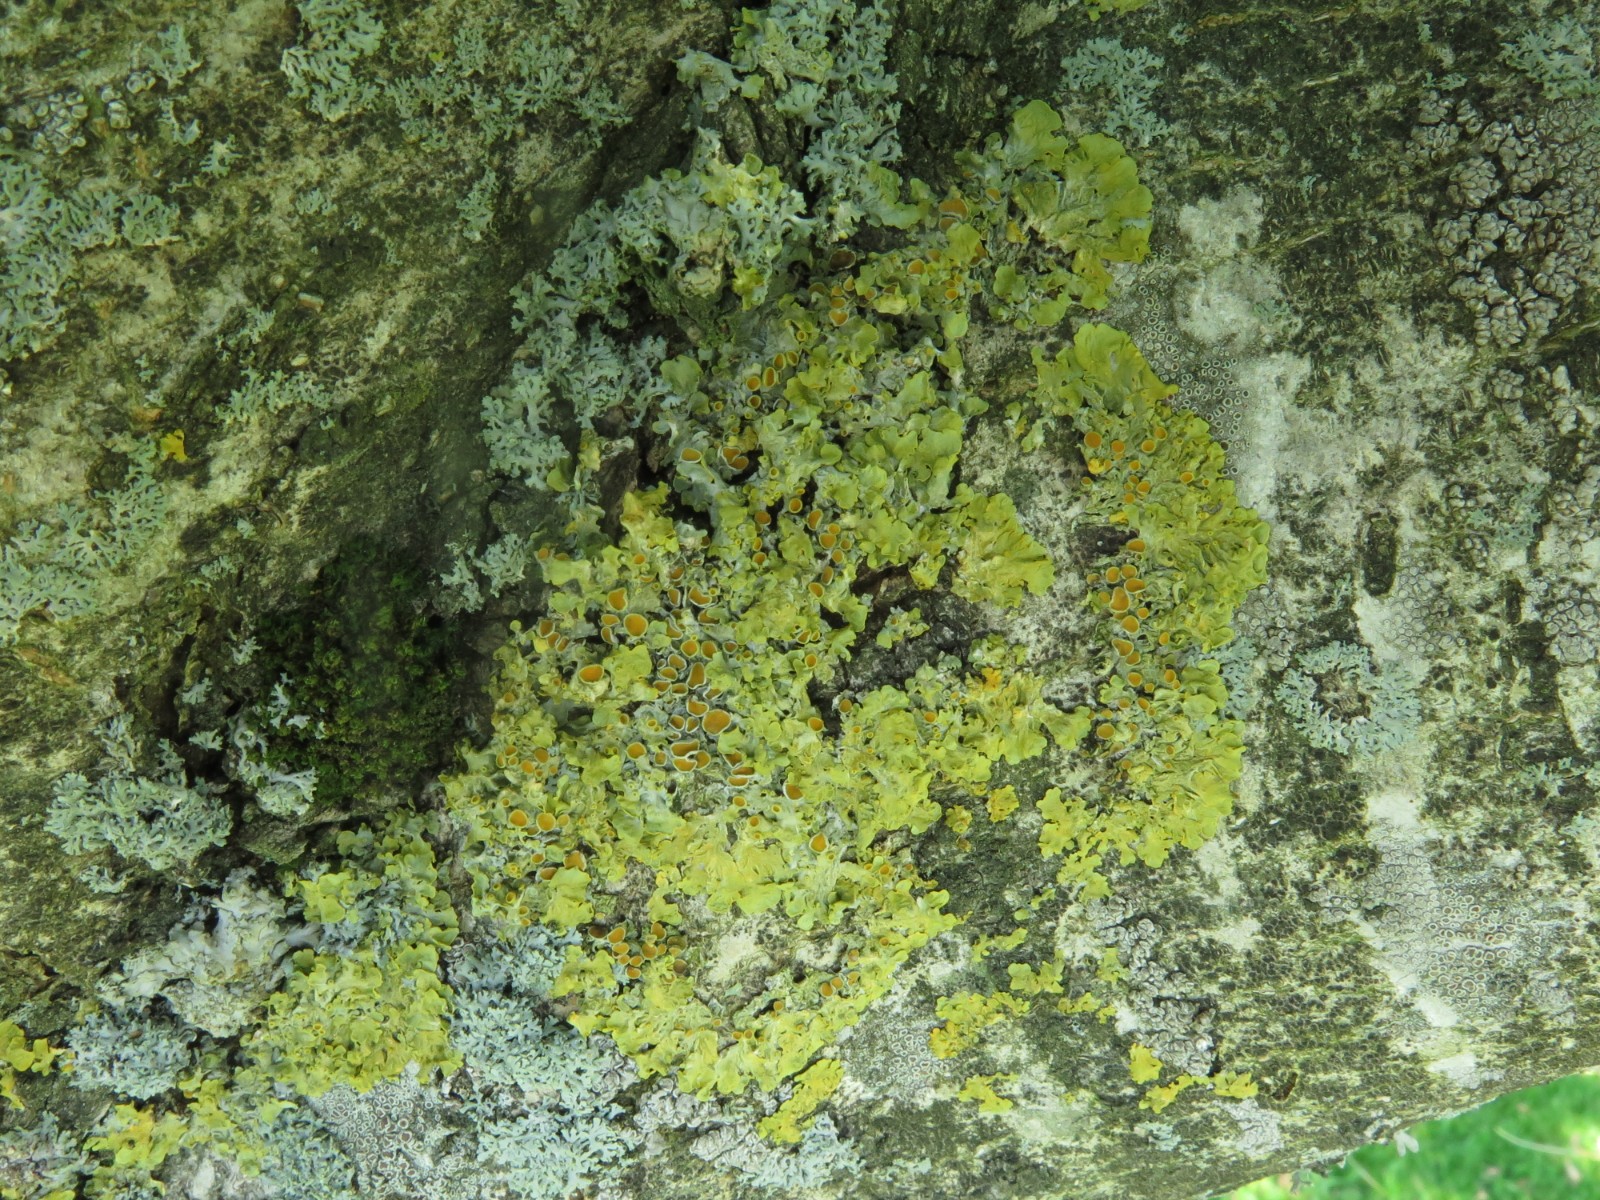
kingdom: Fungi
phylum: Ascomycota
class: Lecanoromycetes
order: Teloschistales
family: Teloschistaceae
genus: Xanthoria
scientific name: Xanthoria parietina
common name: almindelig væggelav
